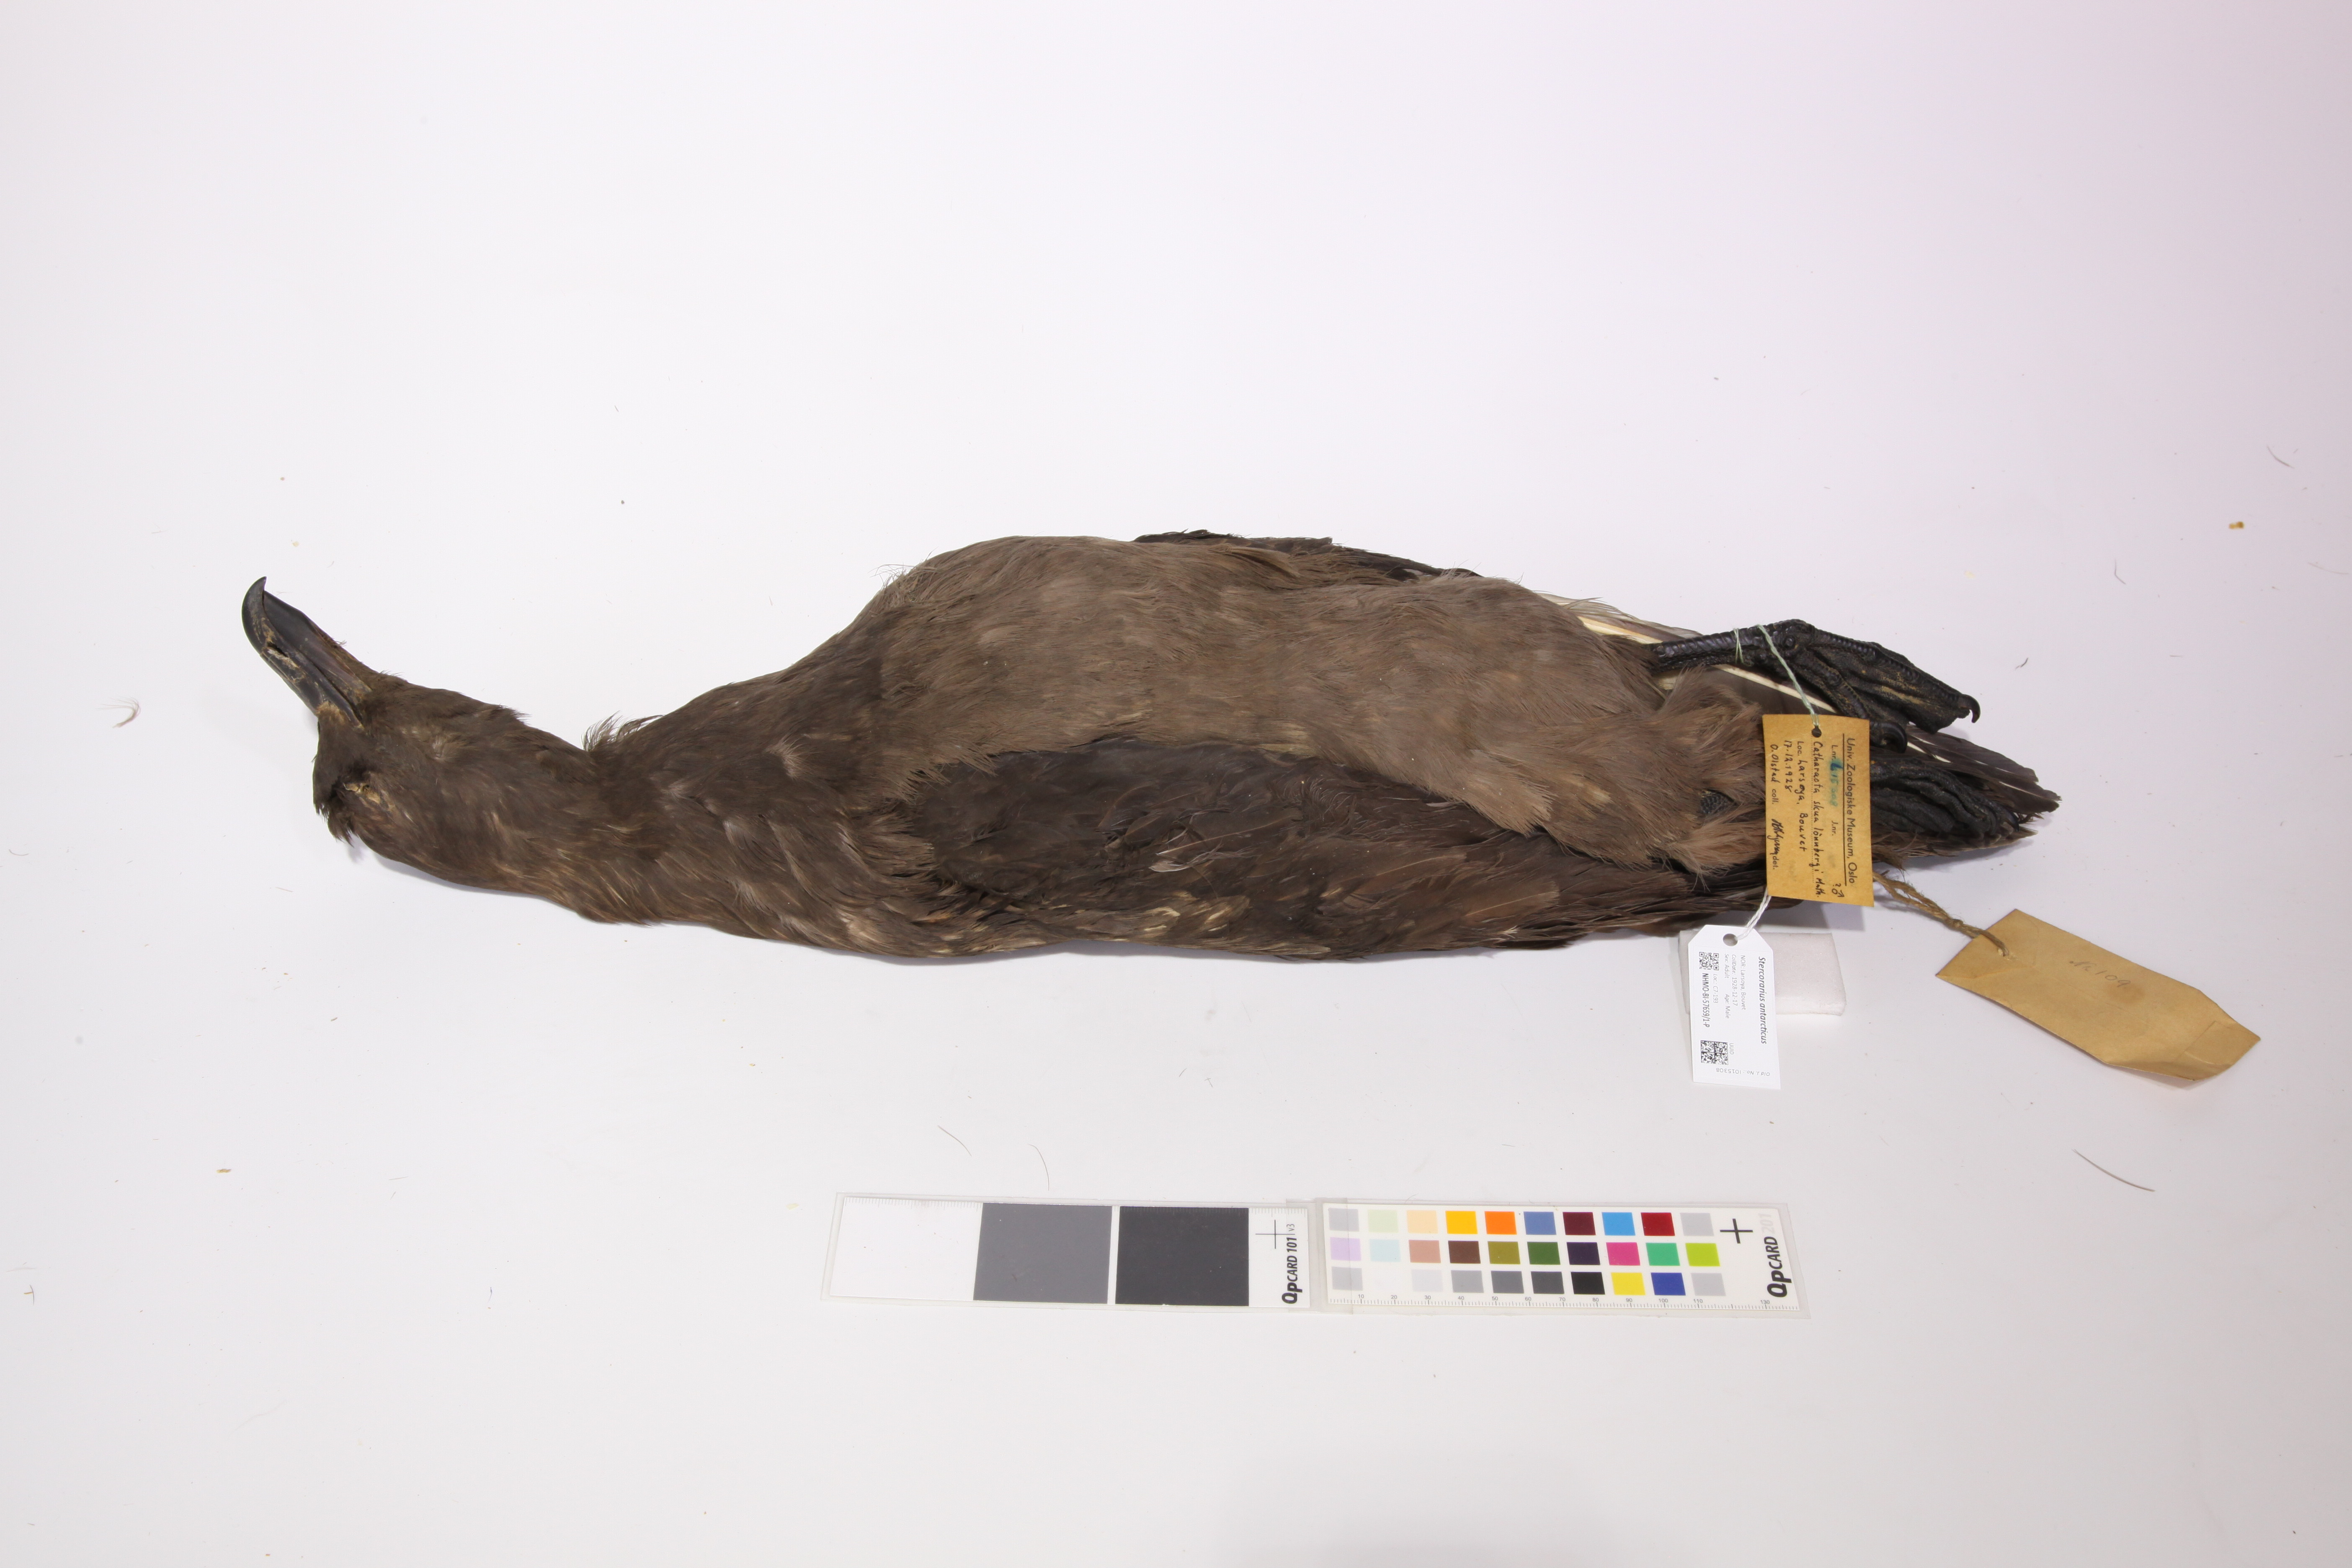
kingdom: Animalia
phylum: Chordata
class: Aves
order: Charadriiformes
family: Stercorariidae
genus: Stercorarius
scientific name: Stercorarius antarcticus
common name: Brown skua
